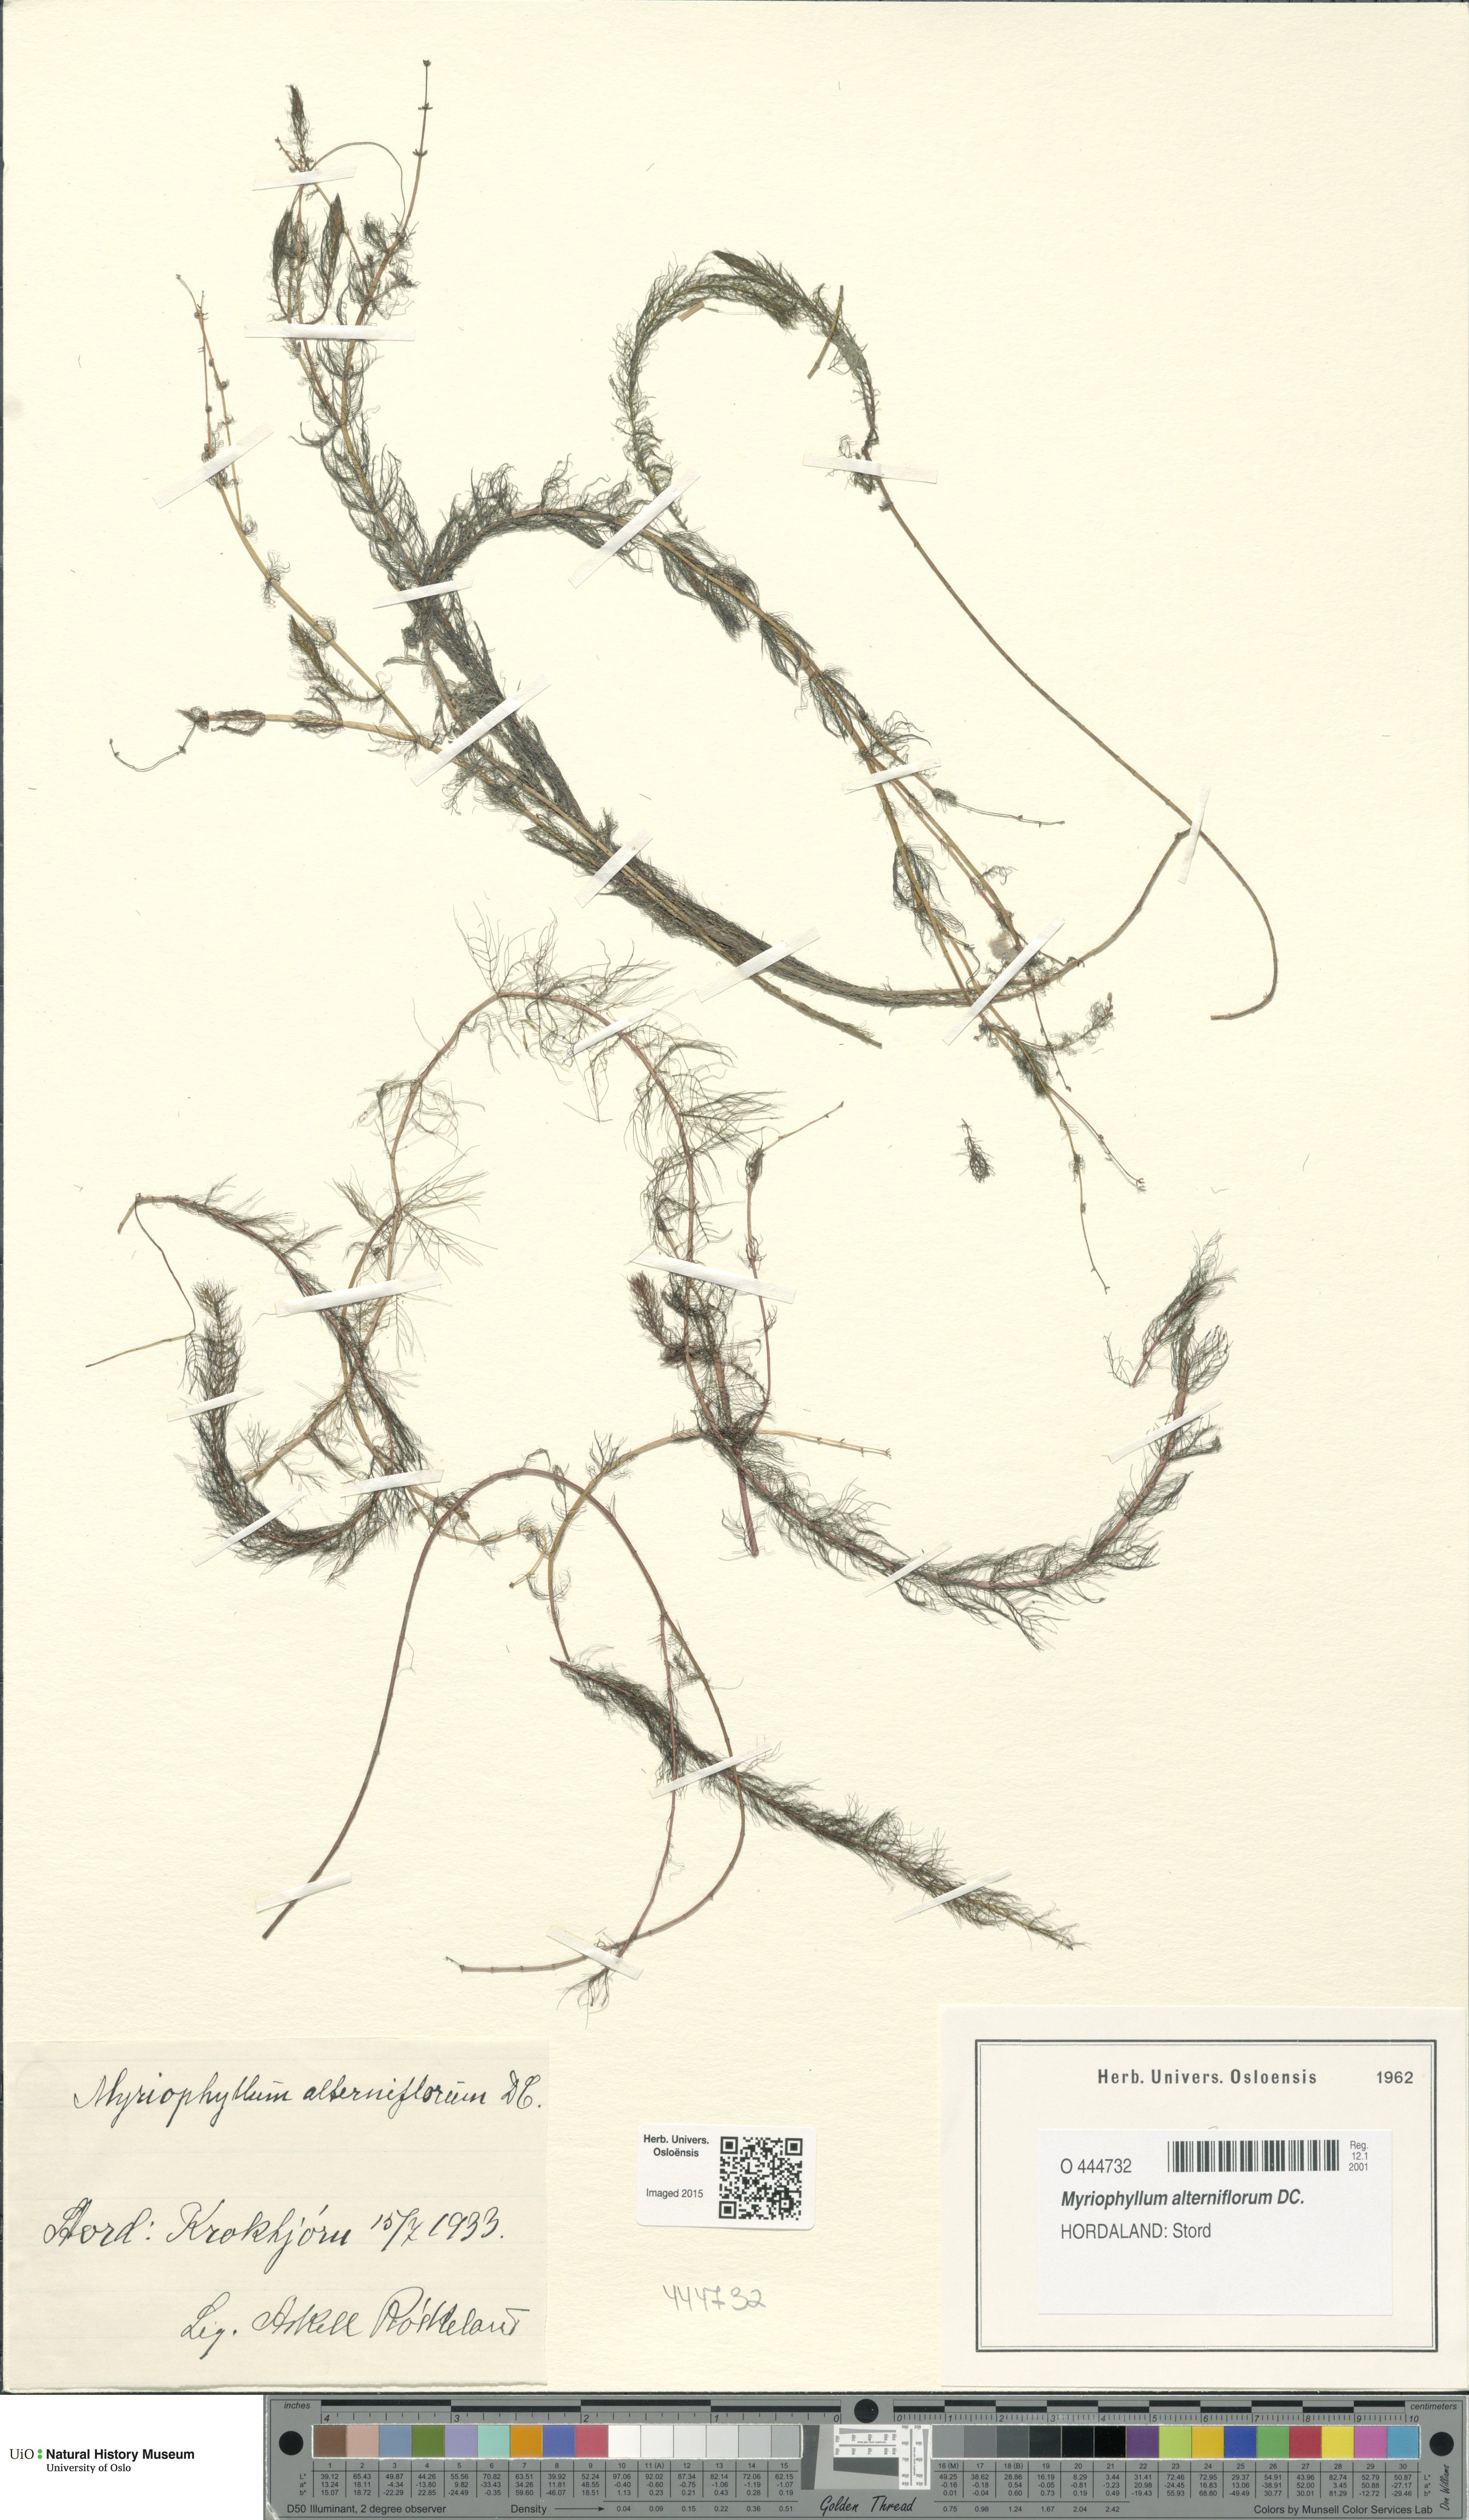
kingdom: Plantae
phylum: Tracheophyta
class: Magnoliopsida
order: Saxifragales
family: Haloragaceae
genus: Myriophyllum
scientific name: Myriophyllum alterniflorum
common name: Alternate water-milfoil
